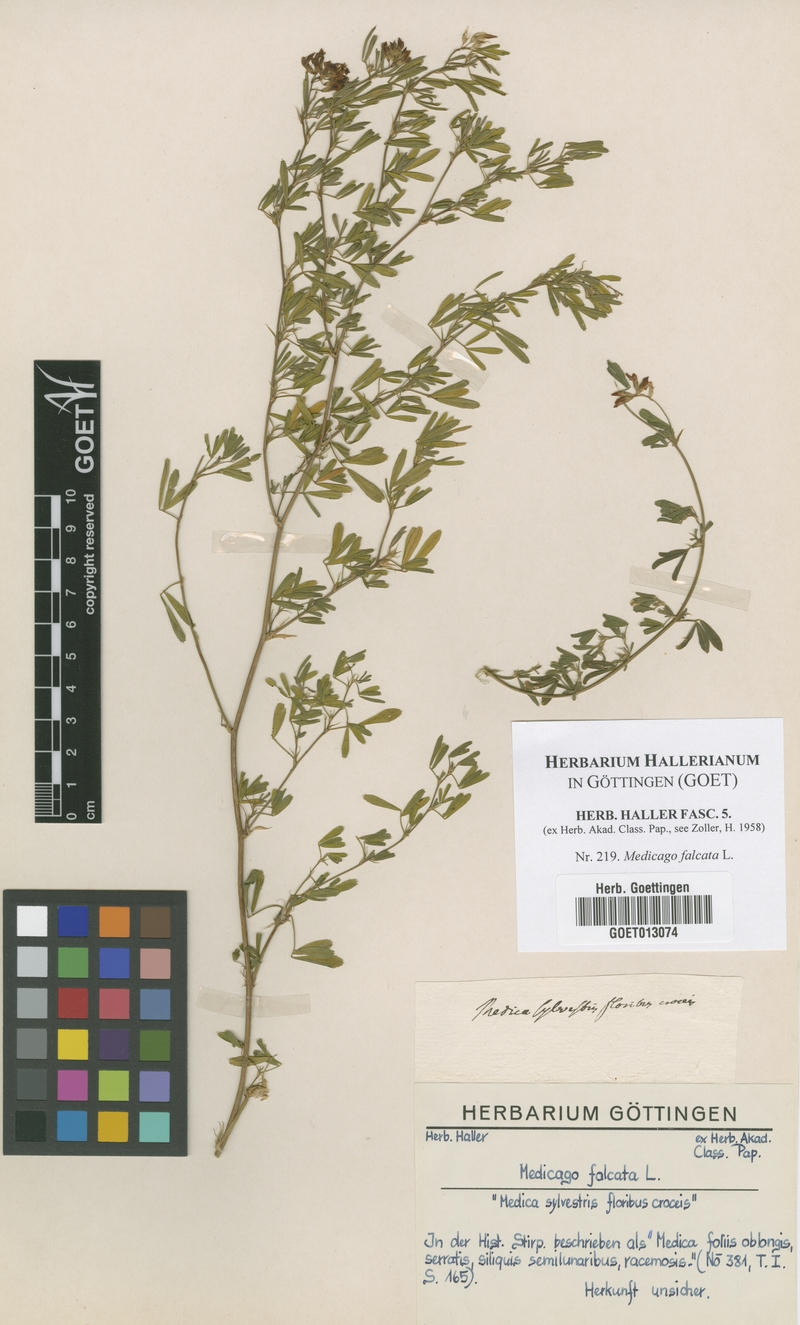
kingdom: Plantae
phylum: Tracheophyta
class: Magnoliopsida
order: Fabales
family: Fabaceae
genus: Medicago
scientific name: Medicago falcata
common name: Sickle medick
